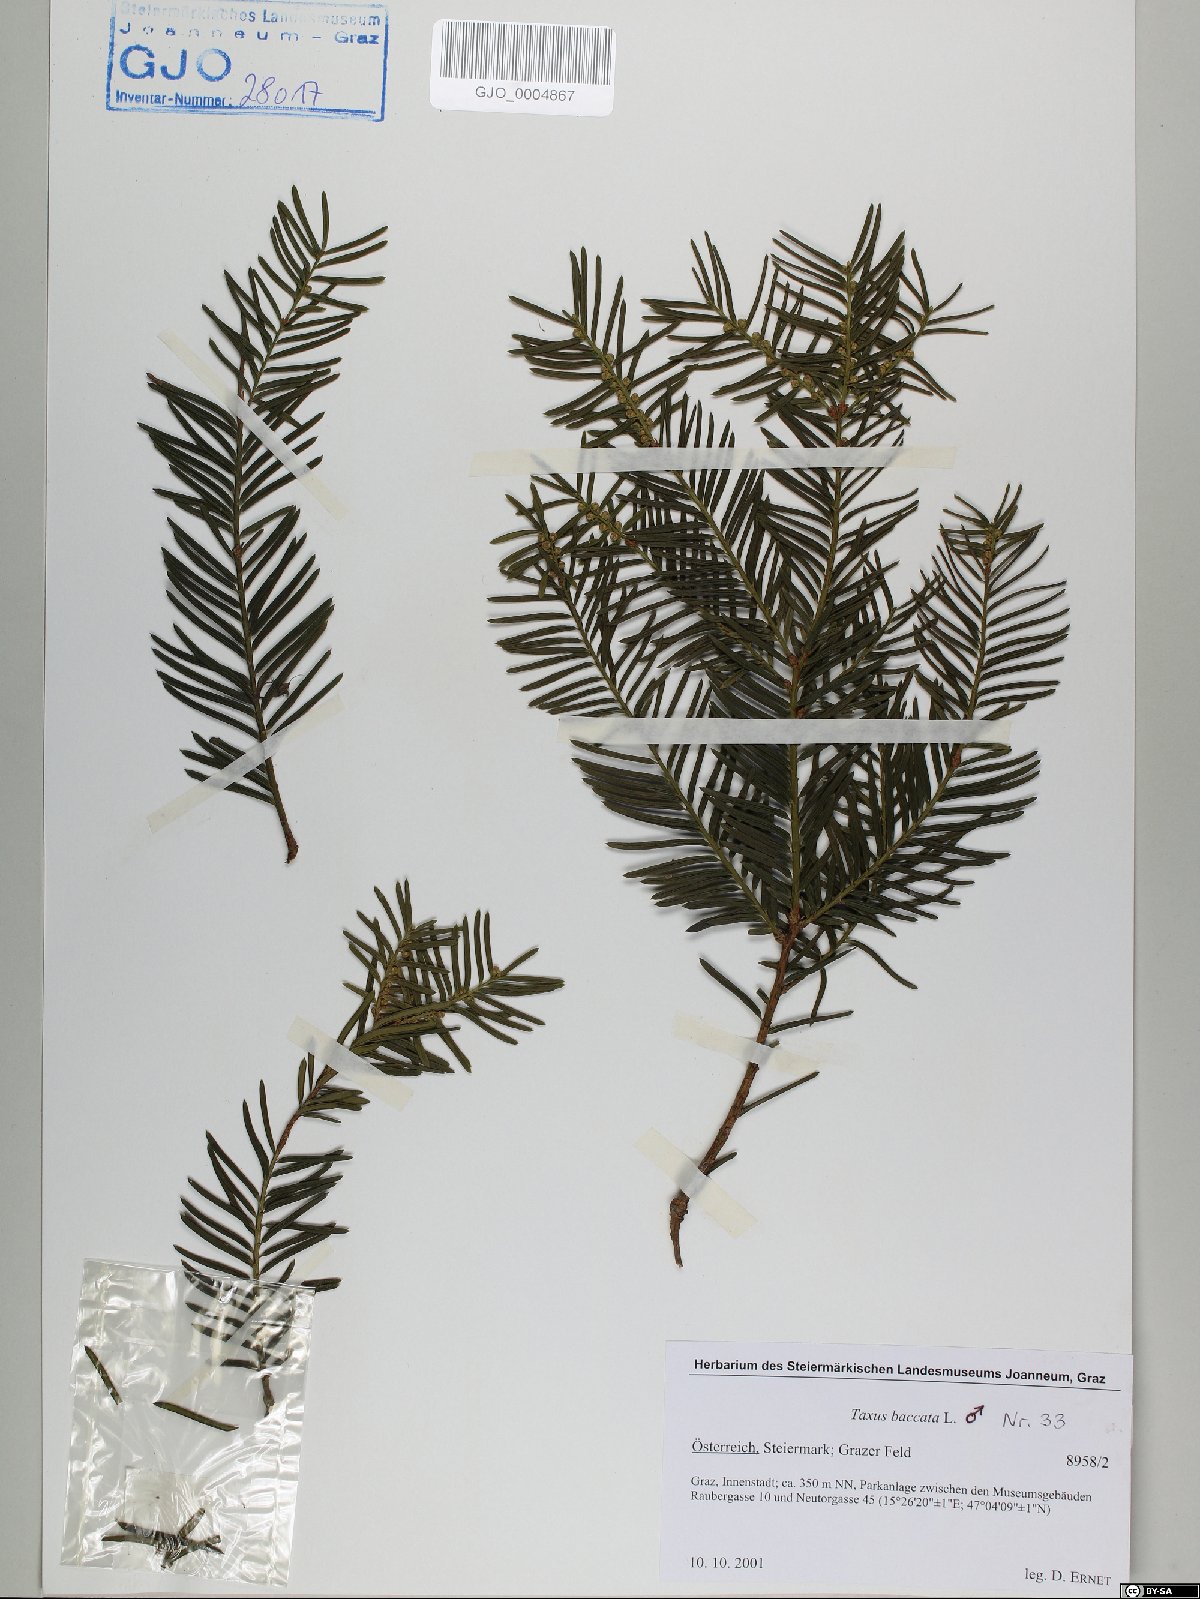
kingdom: Plantae
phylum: Tracheophyta
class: Pinopsida
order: Pinales
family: Taxaceae
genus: Taxus
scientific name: Taxus baccata
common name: Yew
